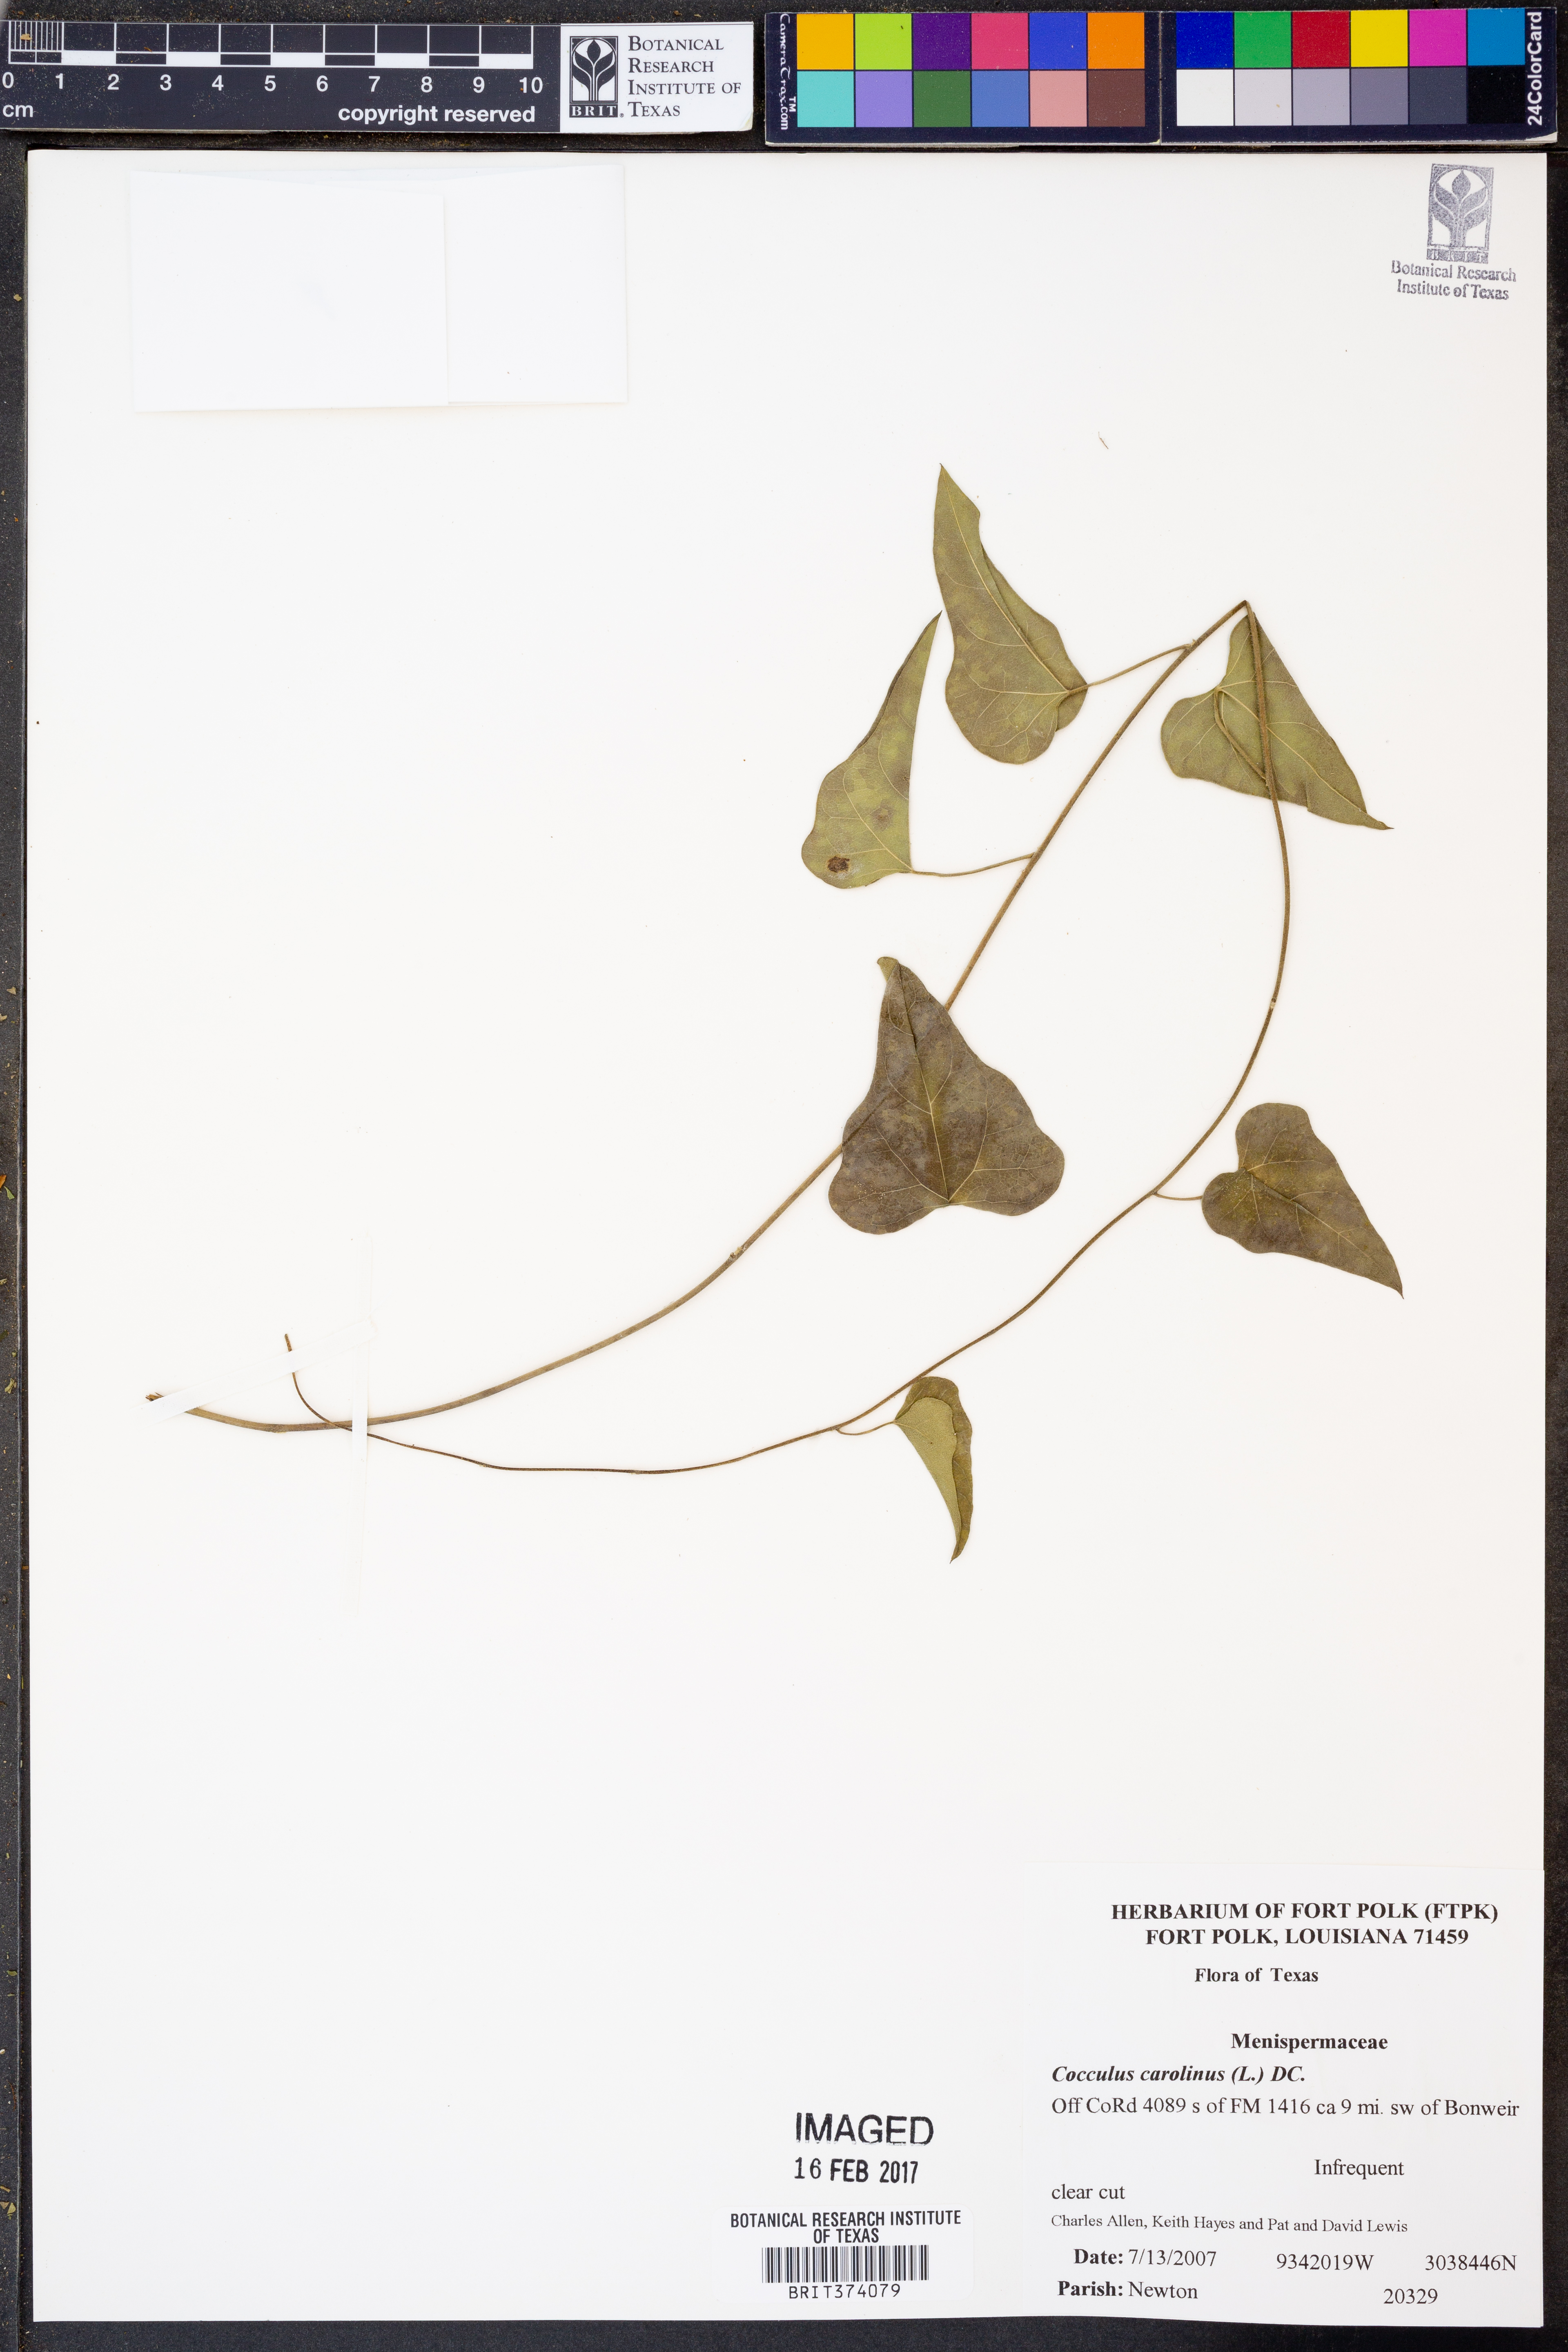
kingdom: Plantae
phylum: Tracheophyta
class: Magnoliopsida
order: Ranunculales
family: Menispermaceae
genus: Cocculus
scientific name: Cocculus carolinus
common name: Carolina moonseed
